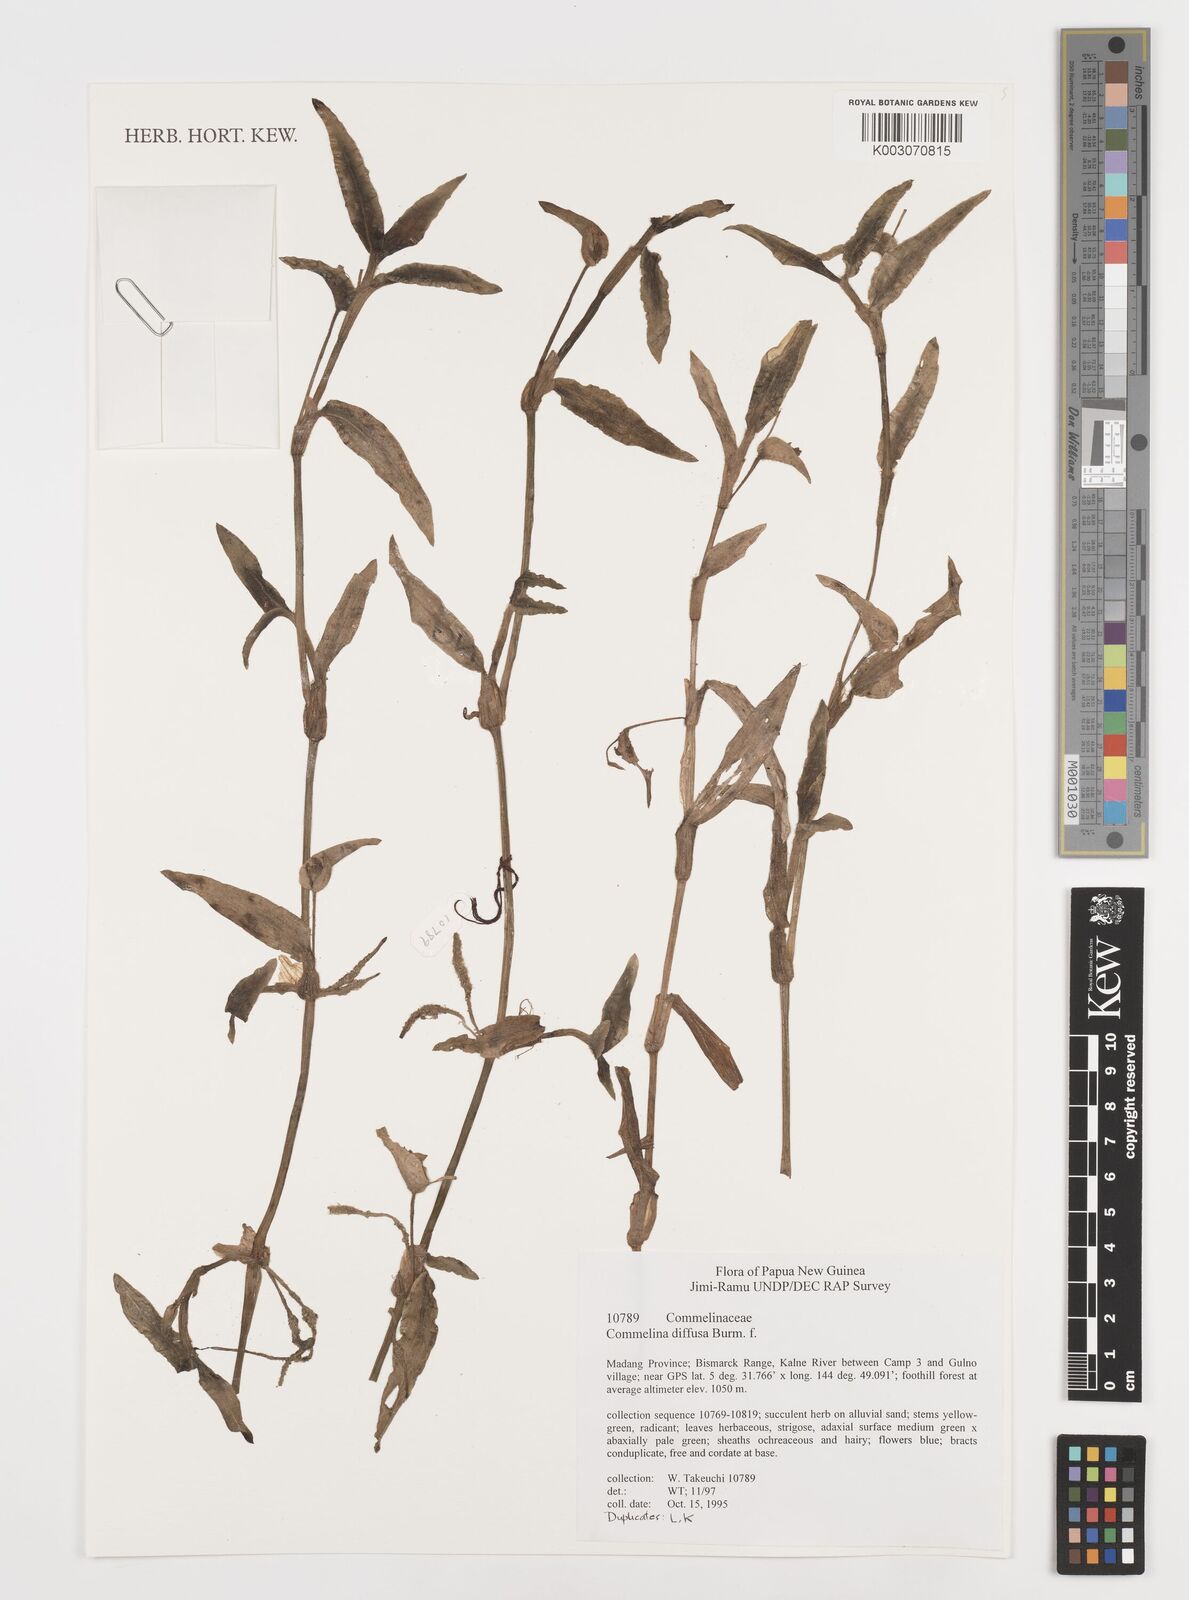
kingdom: Plantae
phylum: Tracheophyta
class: Liliopsida
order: Commelinales
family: Commelinaceae
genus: Murdannia
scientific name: Murdannia nudiflora
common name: Nakedstem dewflower
